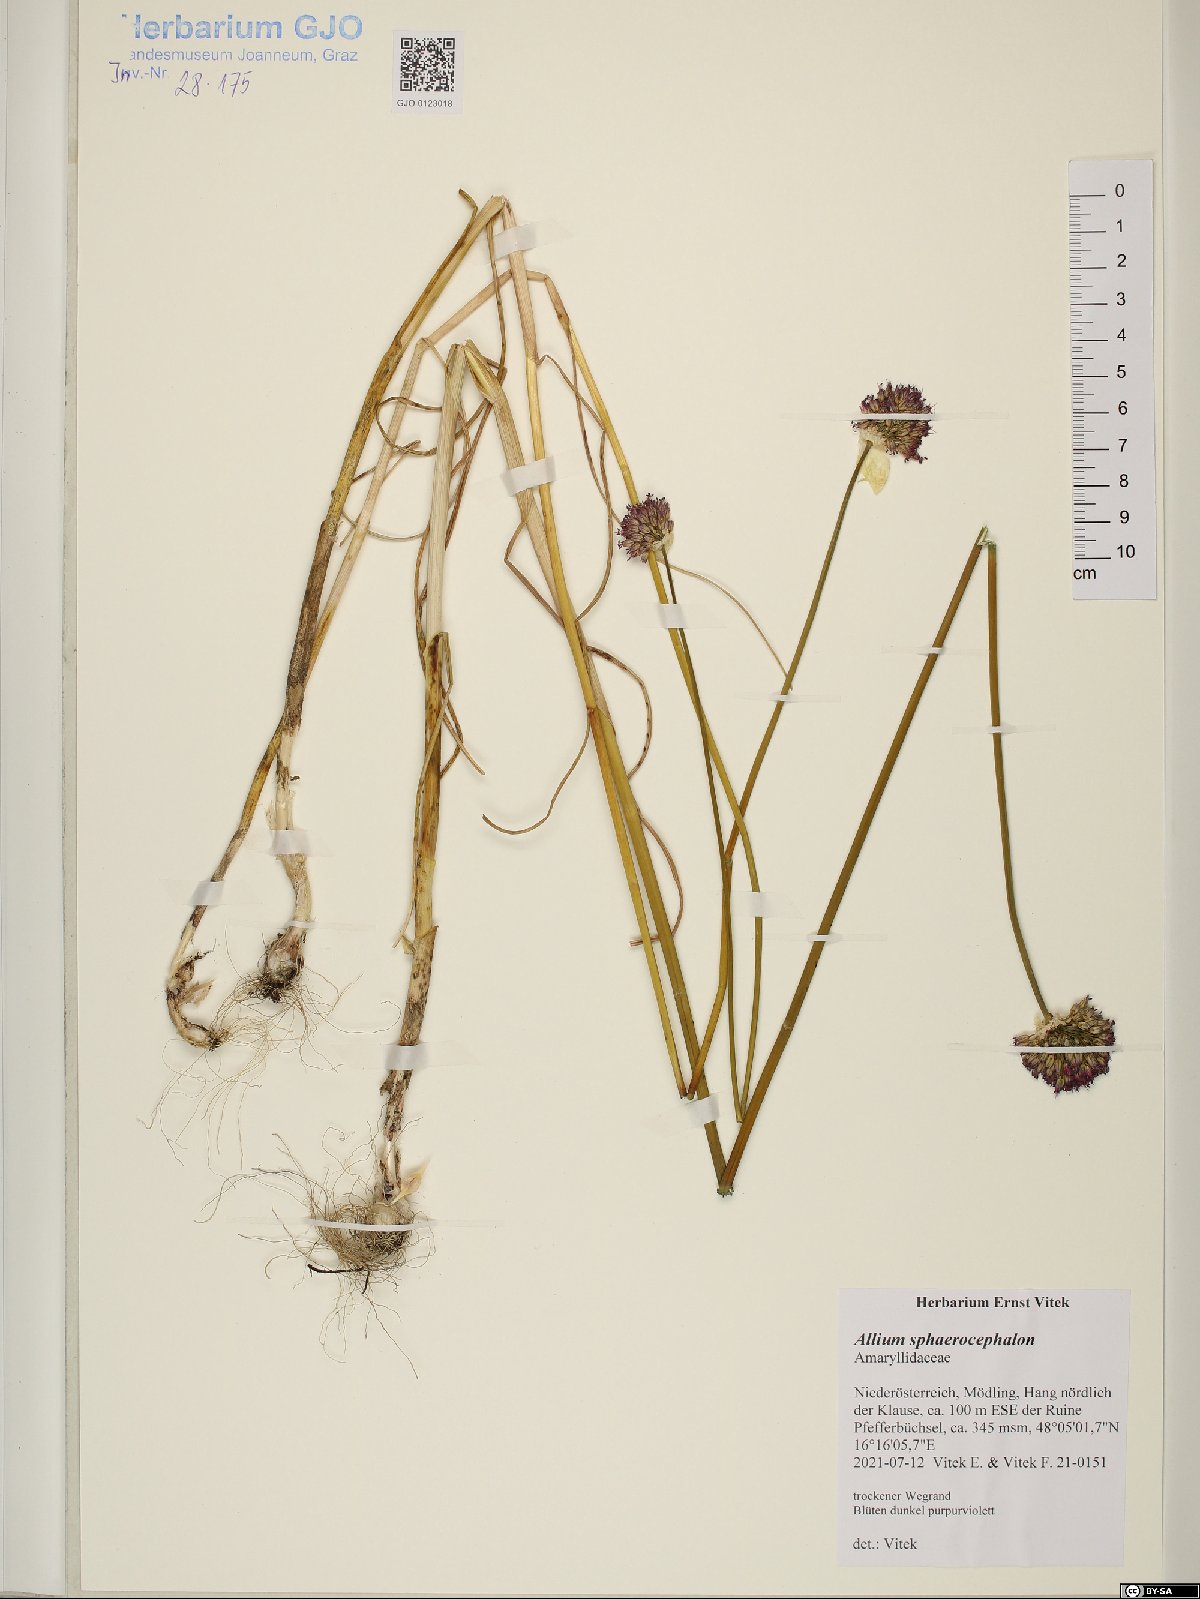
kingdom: Plantae
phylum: Tracheophyta
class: Liliopsida
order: Asparagales
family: Amaryllidaceae
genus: Allium
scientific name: Allium sphaerocephalon
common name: Round-headed leek
